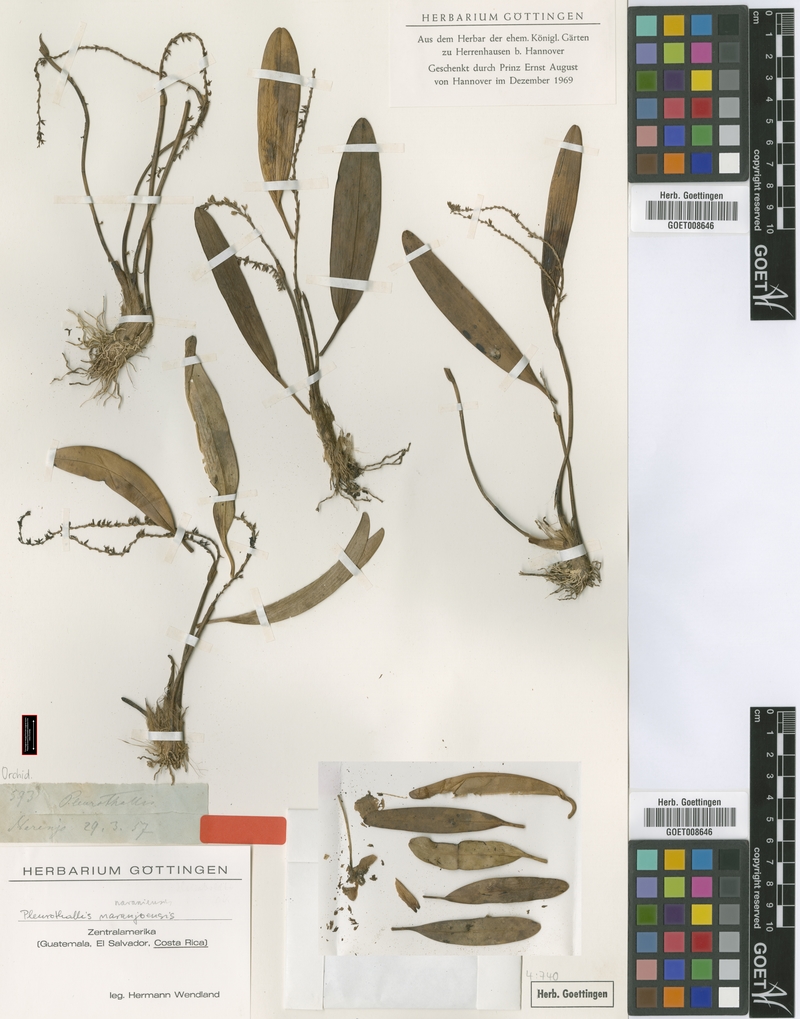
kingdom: Plantae
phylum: Tracheophyta
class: Liliopsida
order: Asparagales
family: Orchidaceae
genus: Stelis
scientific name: Stelis pulchella
